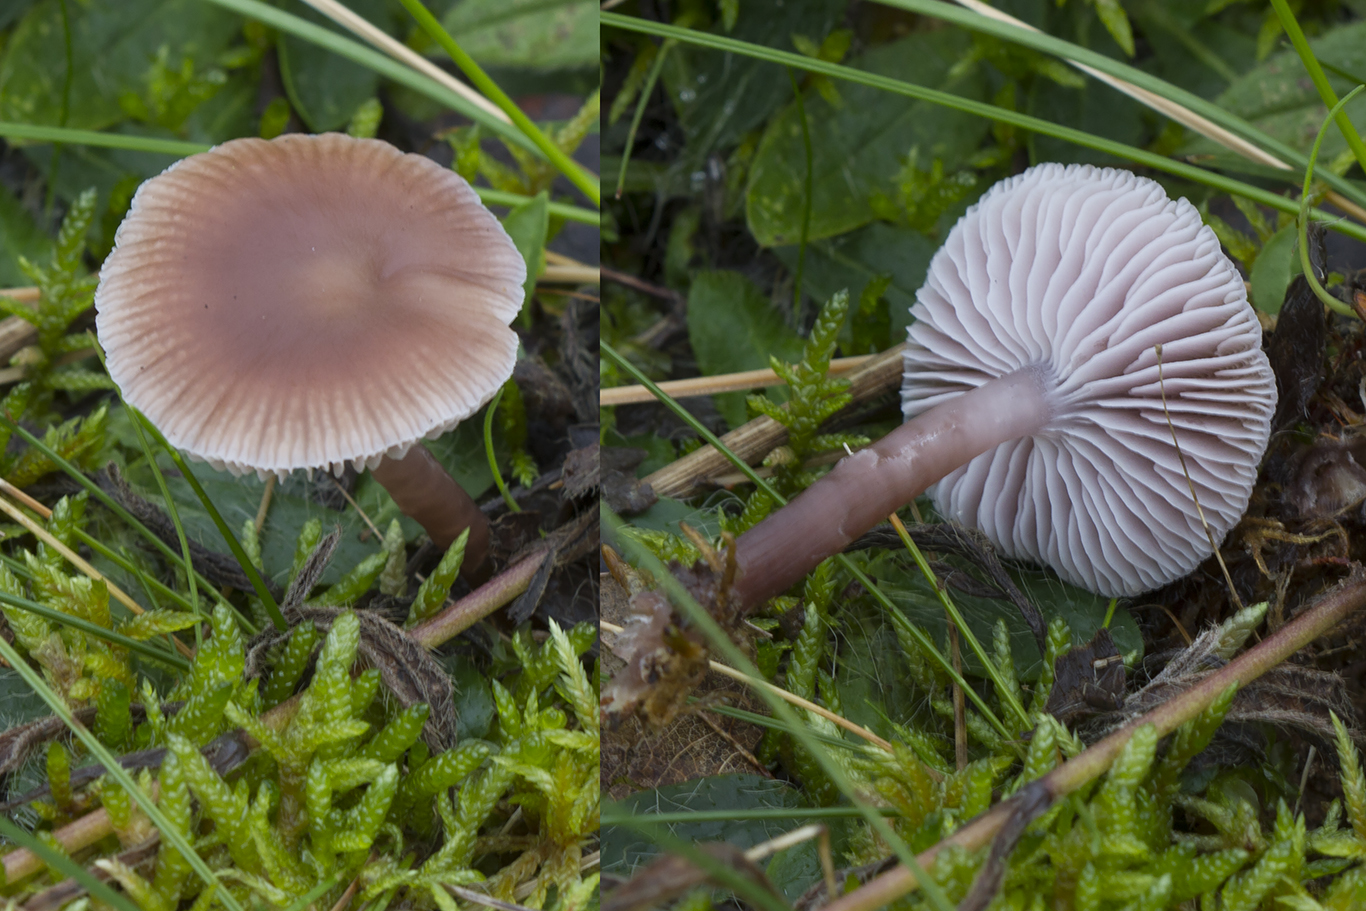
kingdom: Fungi
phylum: Basidiomycota
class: Agaricomycetes
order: Agaricales
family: Mycenaceae
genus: Mycena
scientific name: Mycena luteovariegata
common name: lillagul huesvamp
